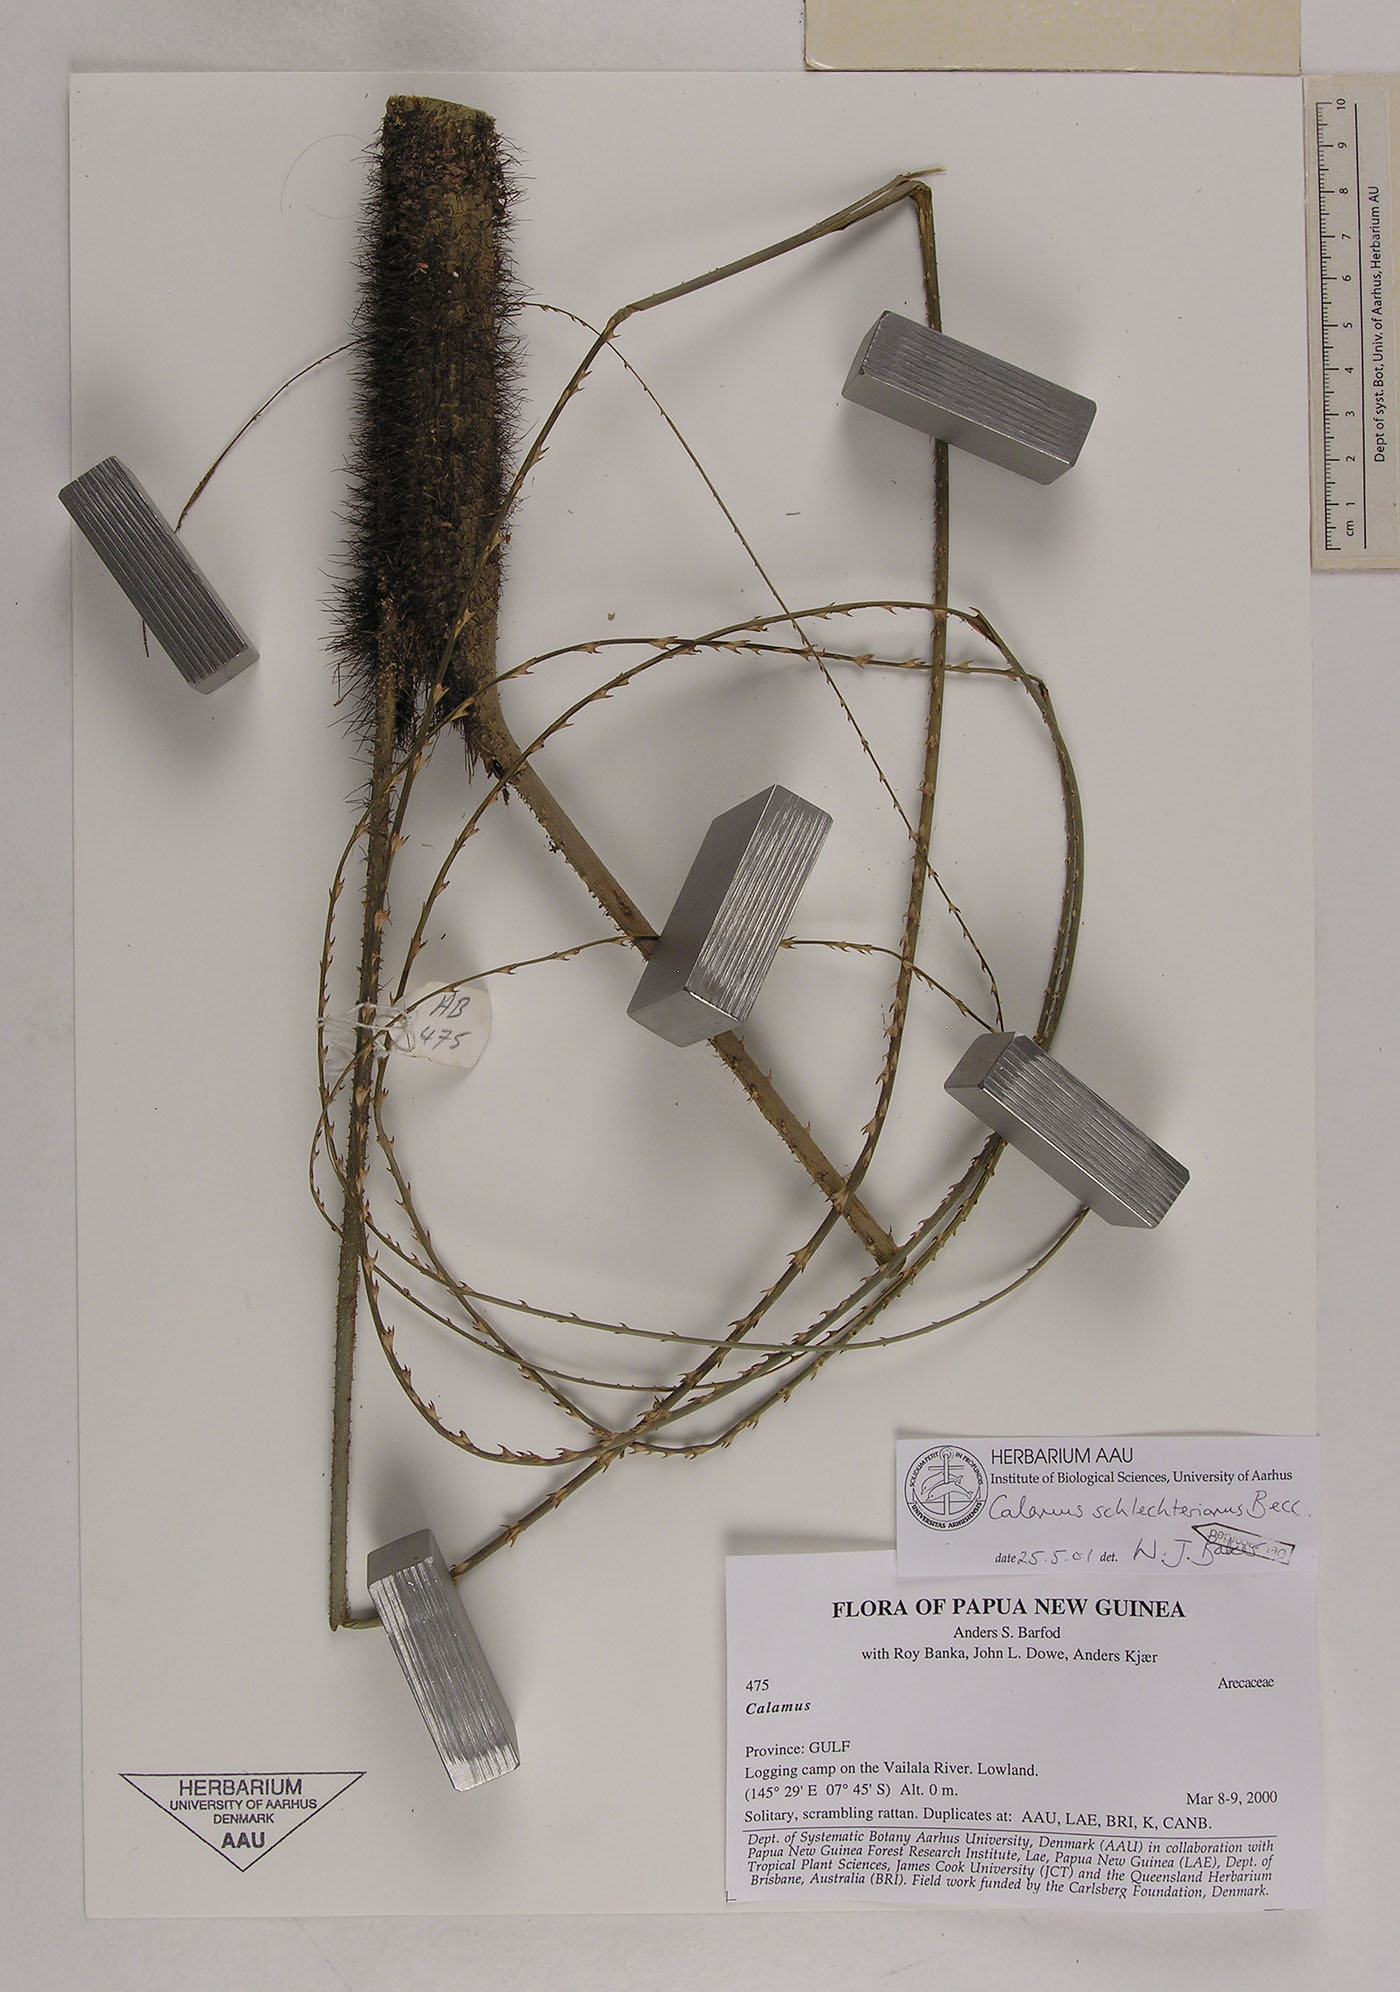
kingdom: Plantae
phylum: Tracheophyta
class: Liliopsida
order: Arecales
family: Arecaceae
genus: Calamus
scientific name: Calamus schlechterianus
